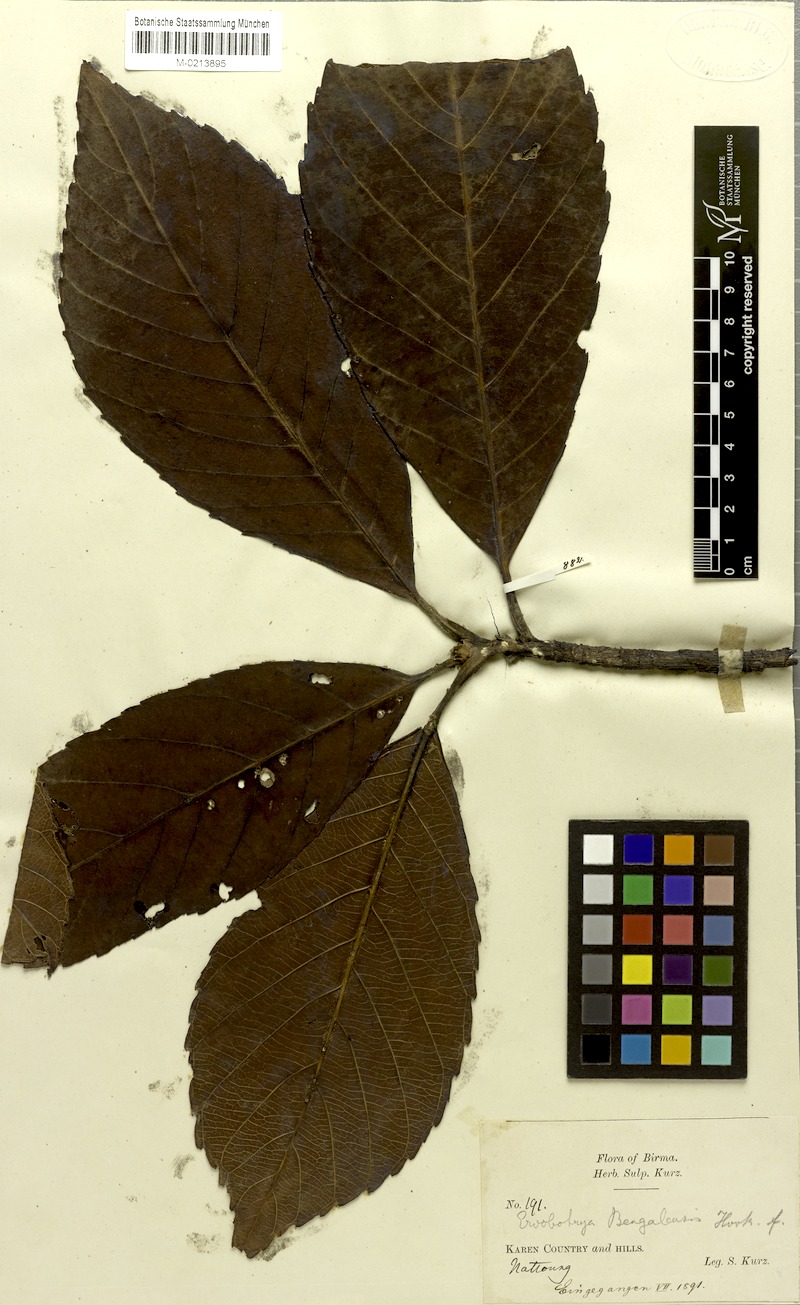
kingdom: Plantae
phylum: Tracheophyta
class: Magnoliopsida
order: Rosales
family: Rosaceae
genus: Rhaphiolepis
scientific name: Rhaphiolepis bengalensis
